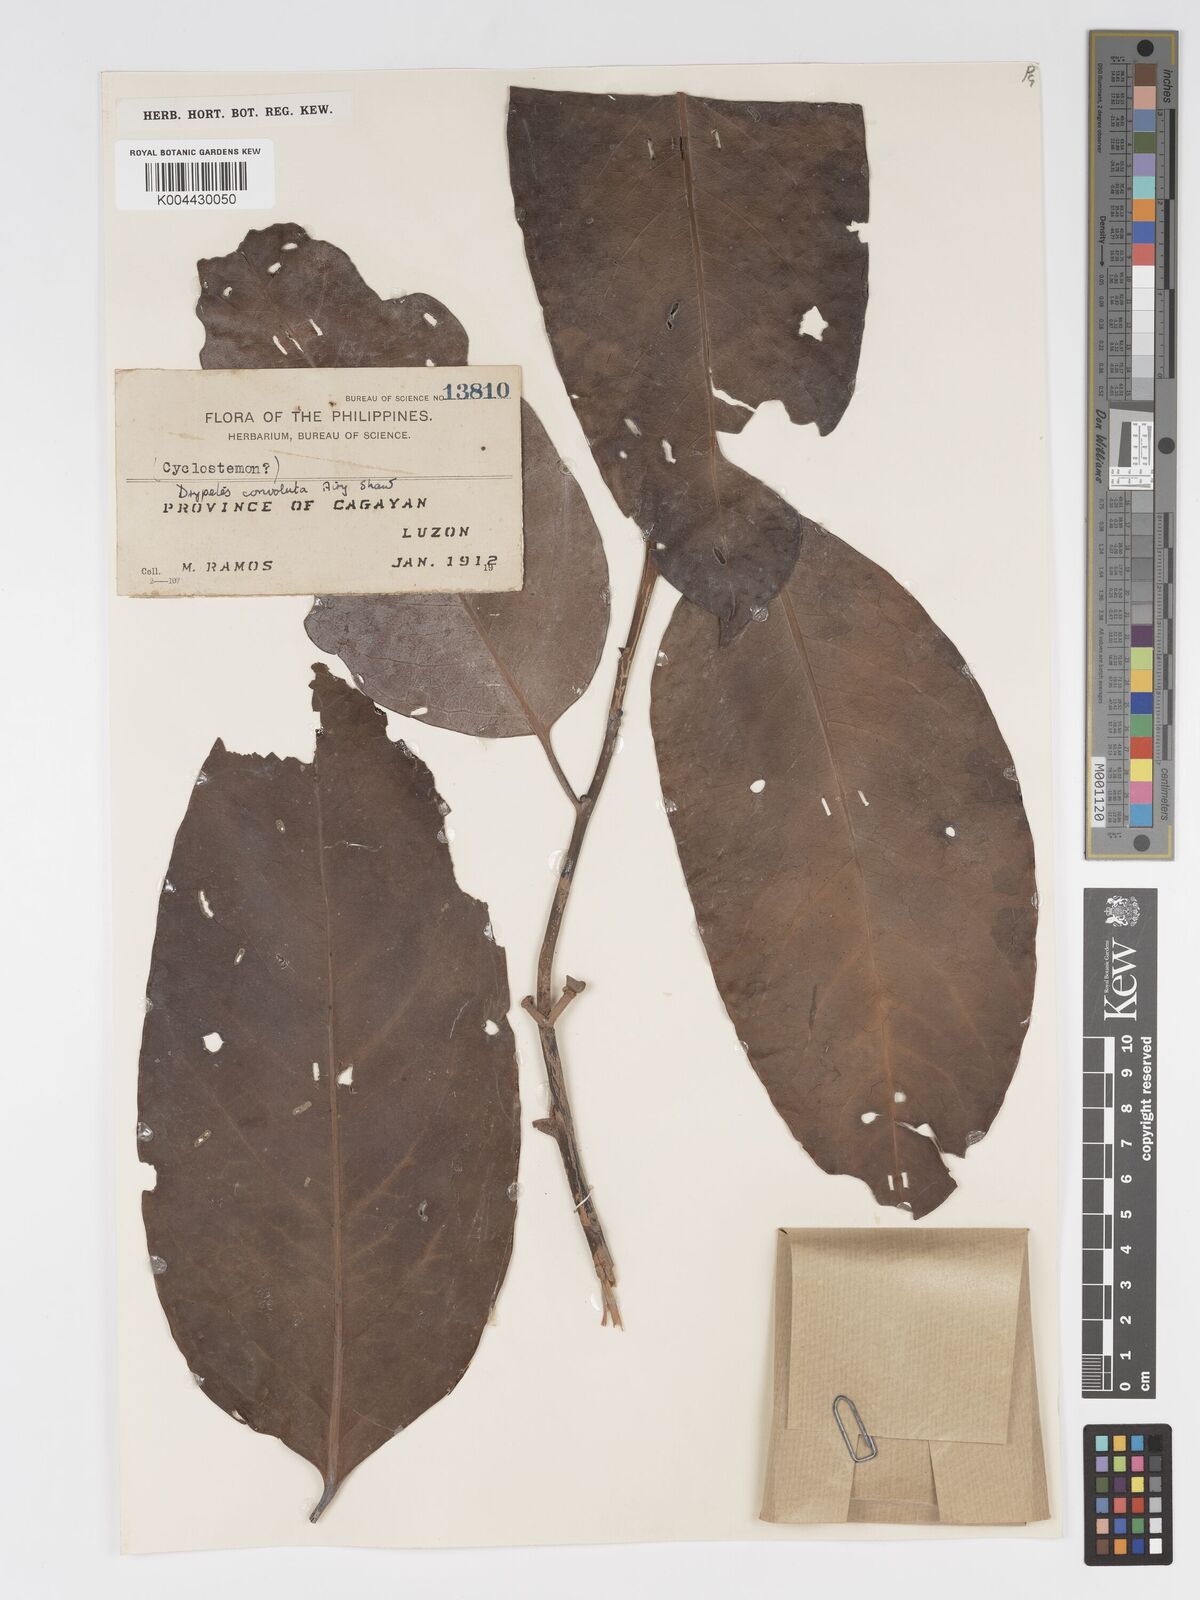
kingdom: Plantae
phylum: Tracheophyta
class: Magnoliopsida
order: Malpighiales
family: Putranjivaceae
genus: Drypetes
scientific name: Drypetes convoluta
